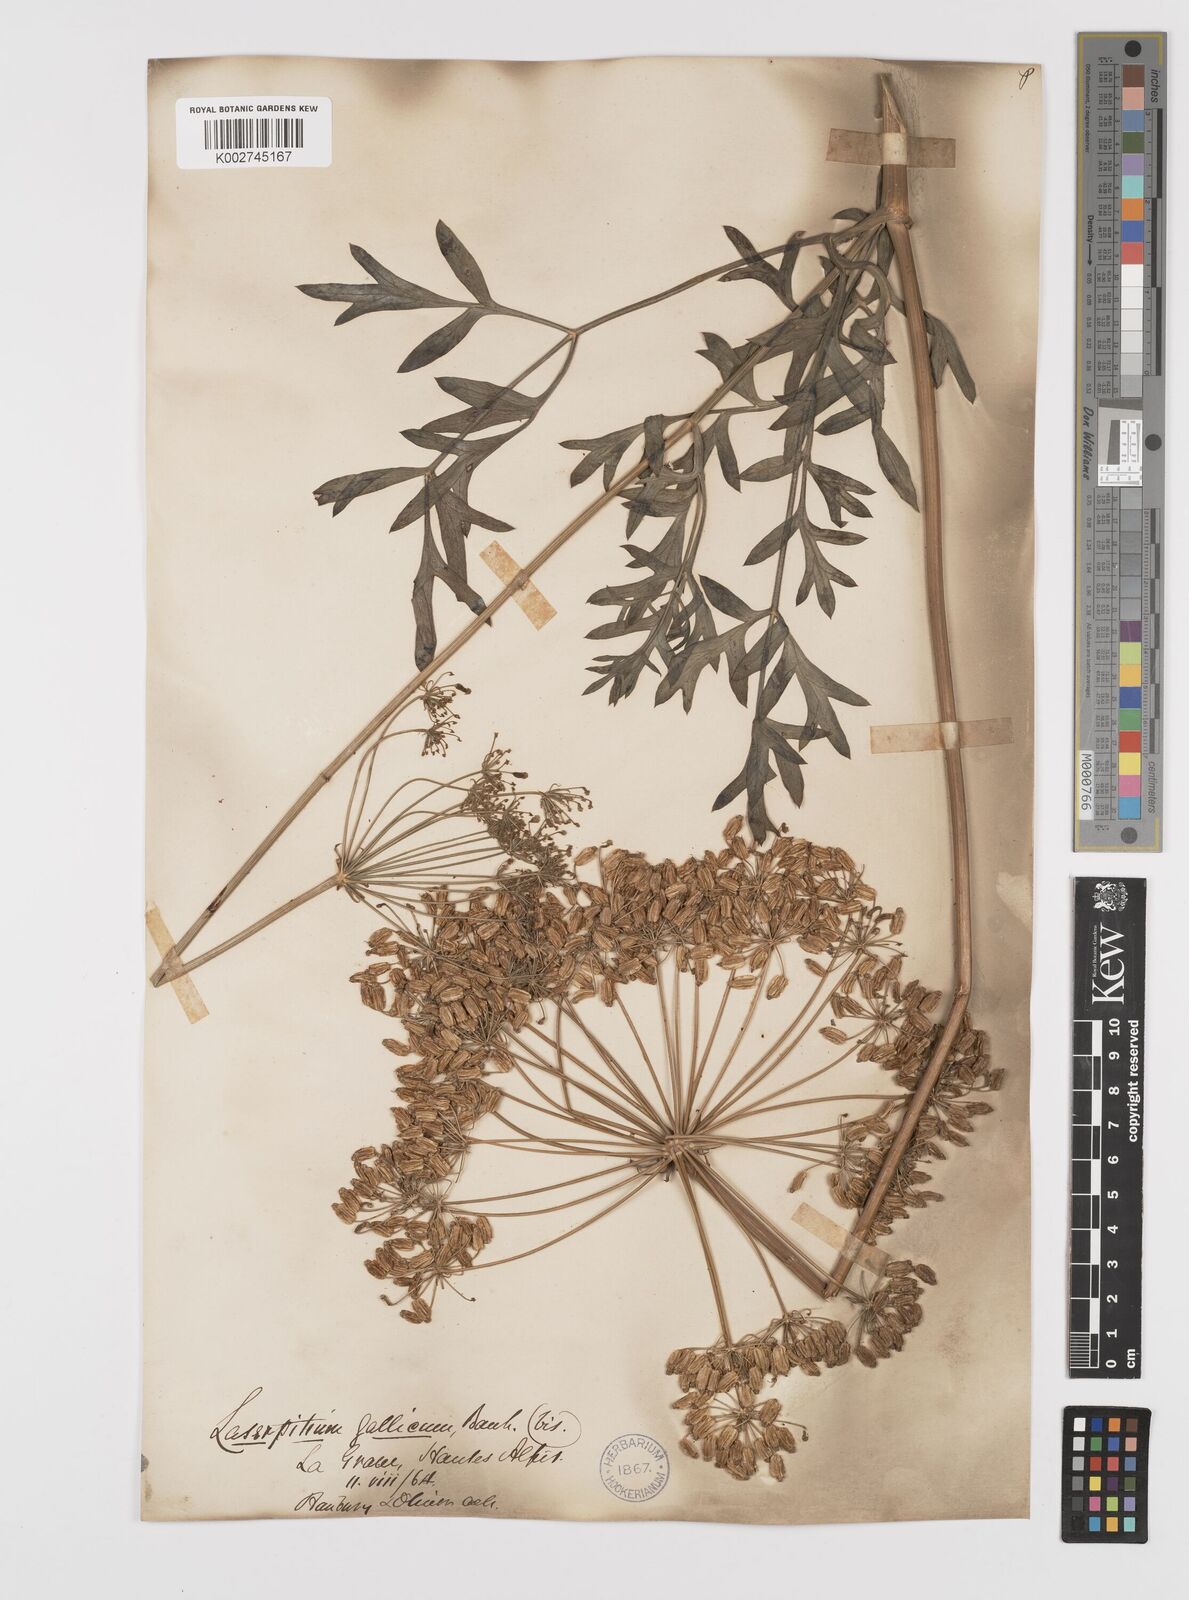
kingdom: Plantae
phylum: Tracheophyta
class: Magnoliopsida
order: Apiales
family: Apiaceae
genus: Laserpitium
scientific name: Laserpitium gallicum
